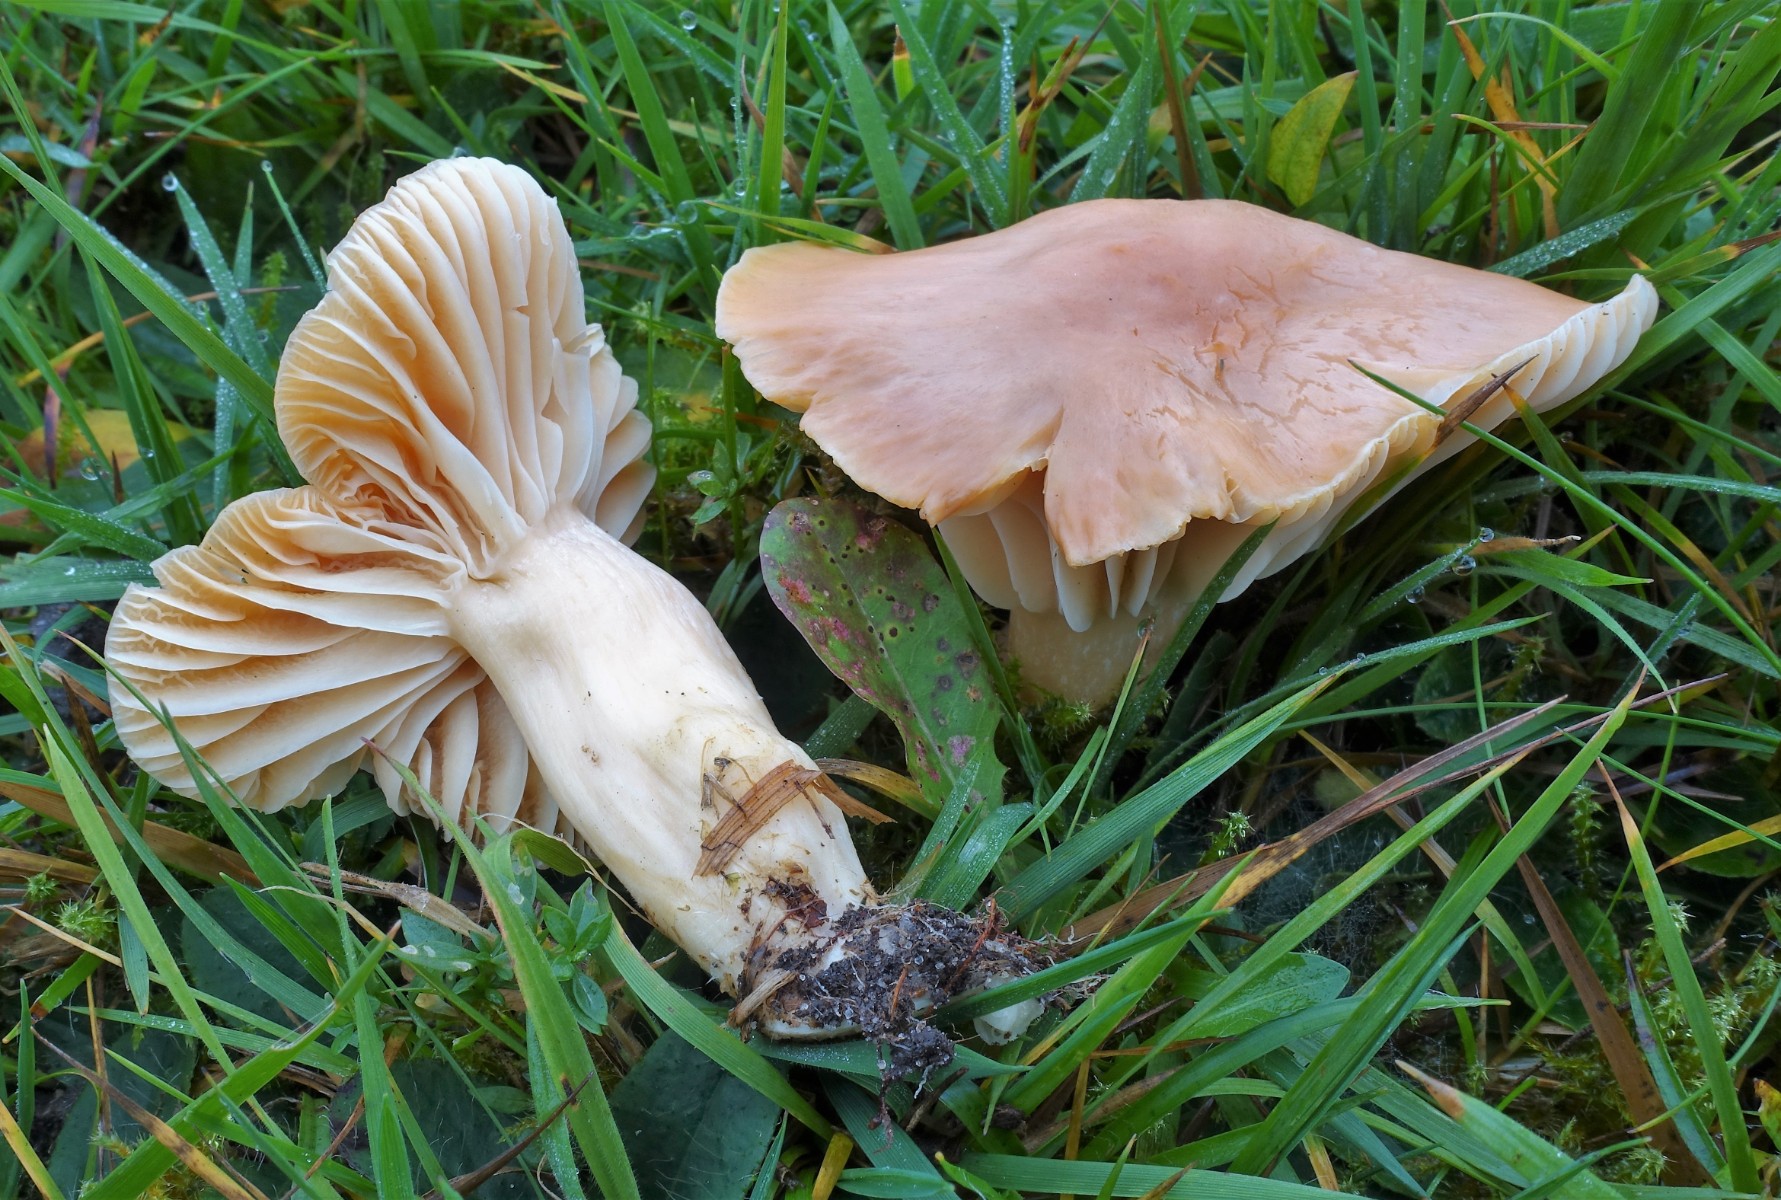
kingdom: Fungi
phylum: Basidiomycota
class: Agaricomycetes
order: Agaricales
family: Hygrophoraceae
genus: Cuphophyllus
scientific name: Cuphophyllus pratensis
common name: eng-vokshat
